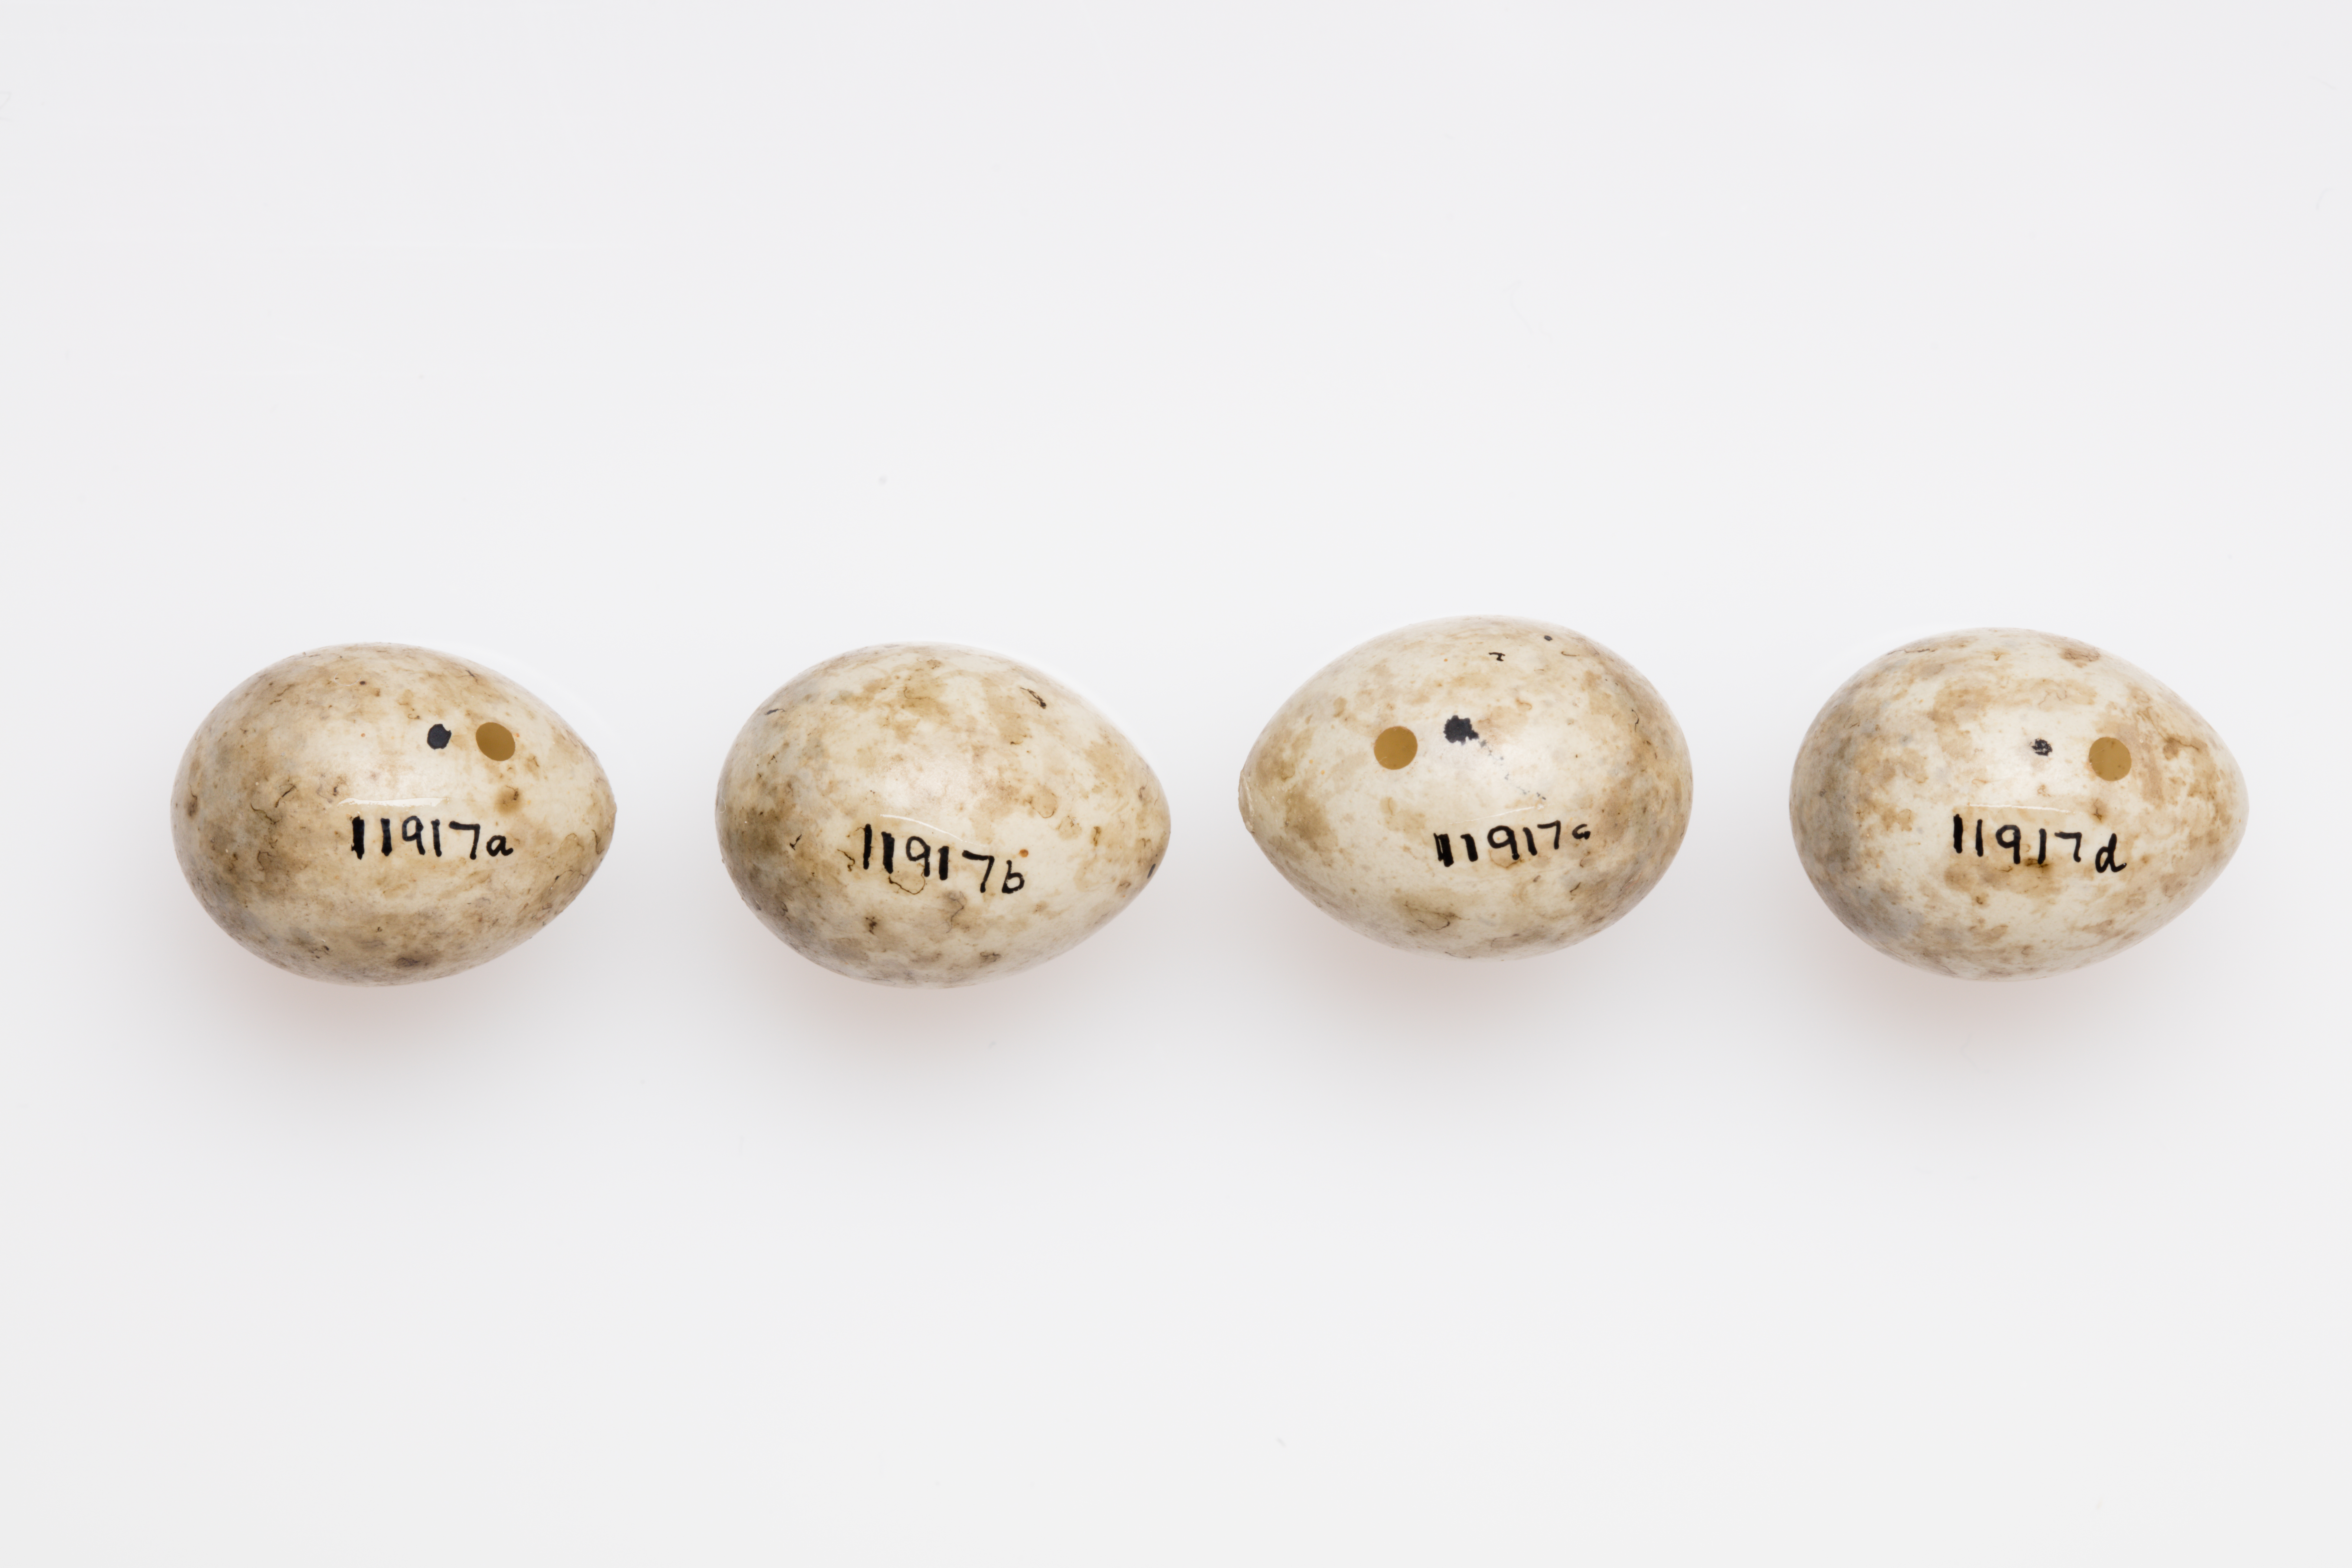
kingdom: Animalia
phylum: Chordata
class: Aves
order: Passeriformes
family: Sylviidae
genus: Sylvia
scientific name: Sylvia borin
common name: Garden warbler
